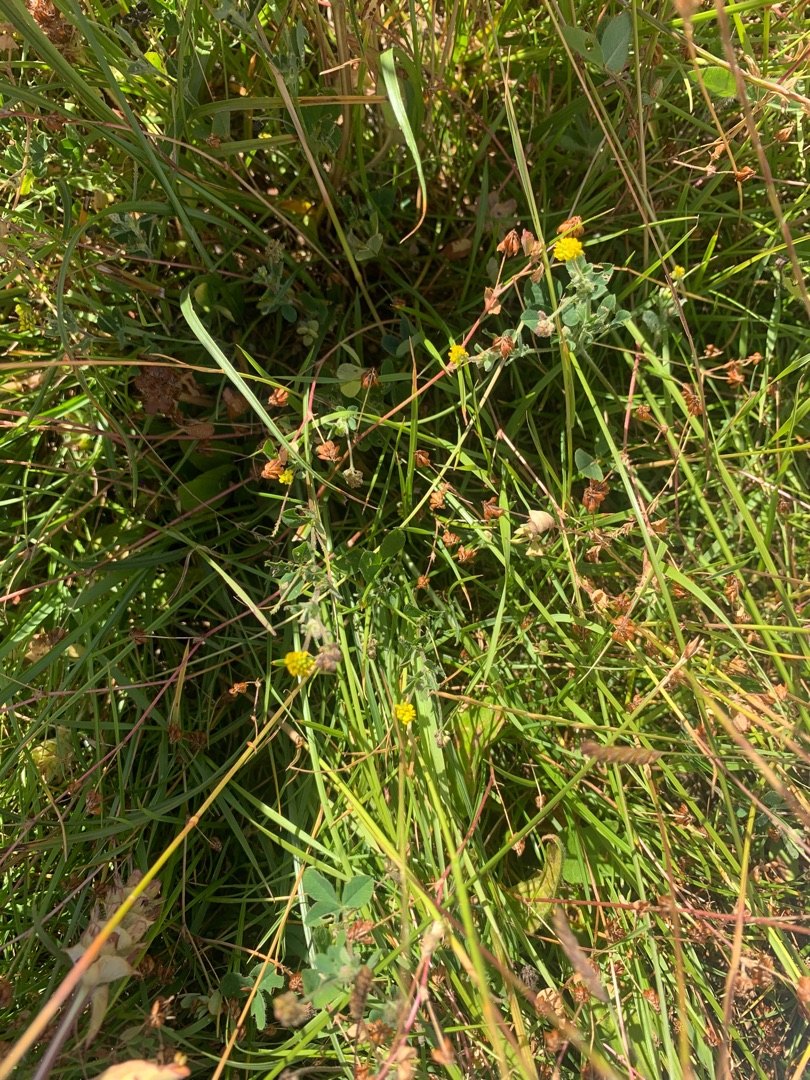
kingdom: Plantae
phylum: Tracheophyta
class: Magnoliopsida
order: Fabales
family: Fabaceae
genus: Medicago
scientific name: Medicago lupulina
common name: Humle-sneglebælg
